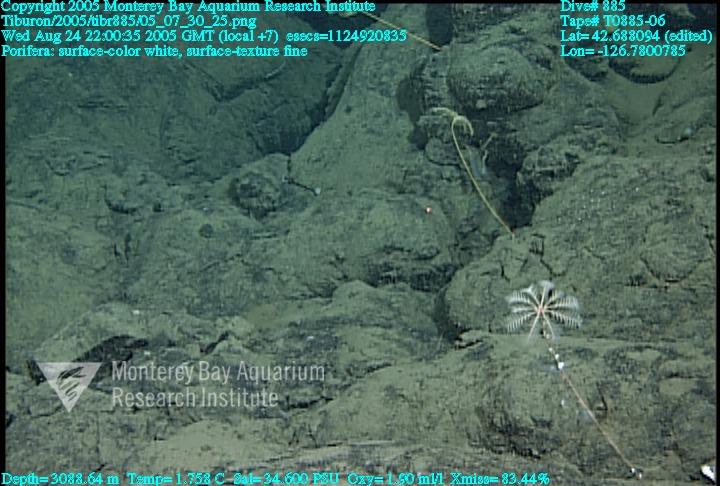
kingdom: Animalia
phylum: Porifera
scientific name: Porifera
